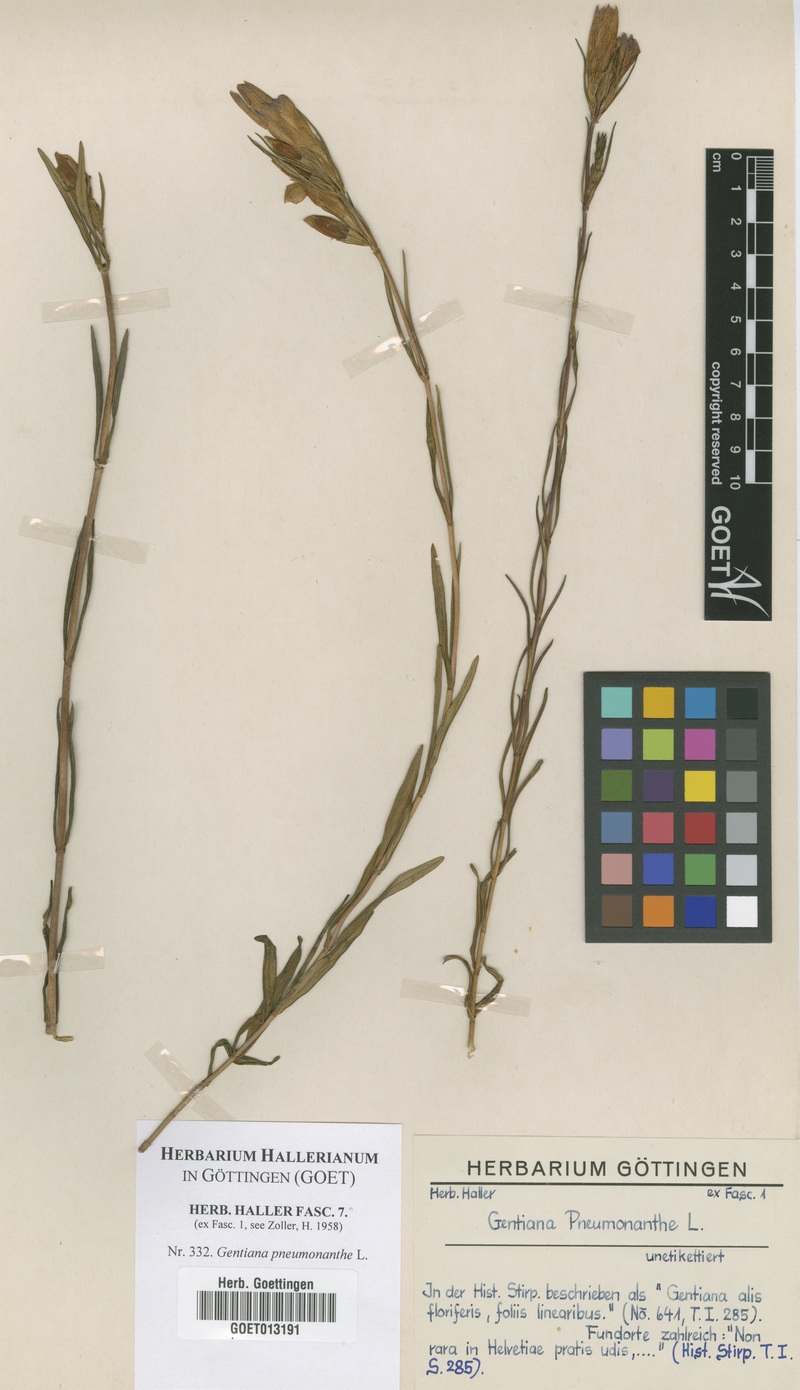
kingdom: Plantae
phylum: Tracheophyta
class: Magnoliopsida
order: Gentianales
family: Gentianaceae
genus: Gentiana
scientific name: Gentiana pneumonanthe
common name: Marsh gentian
